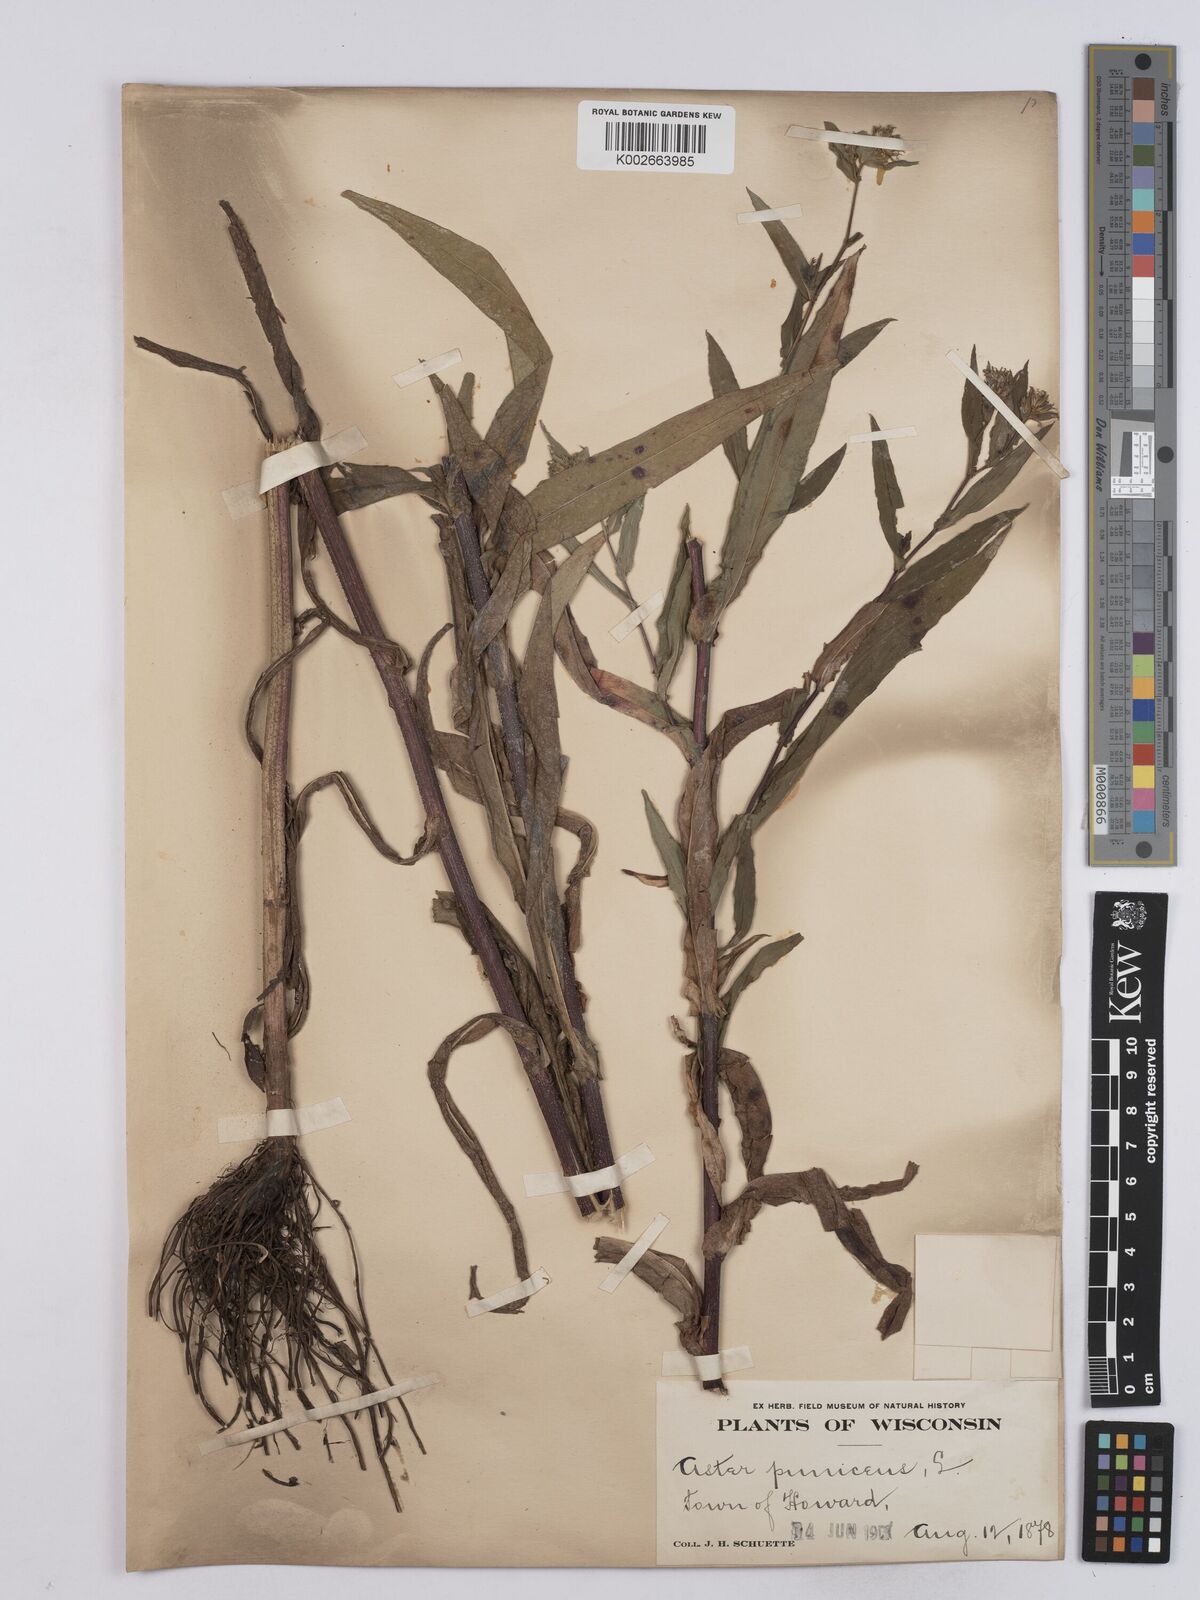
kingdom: Plantae
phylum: Tracheophyta
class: Magnoliopsida
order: Asterales
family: Asteraceae
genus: Symphyotrichum
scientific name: Symphyotrichum puniceum
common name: Bog aster
